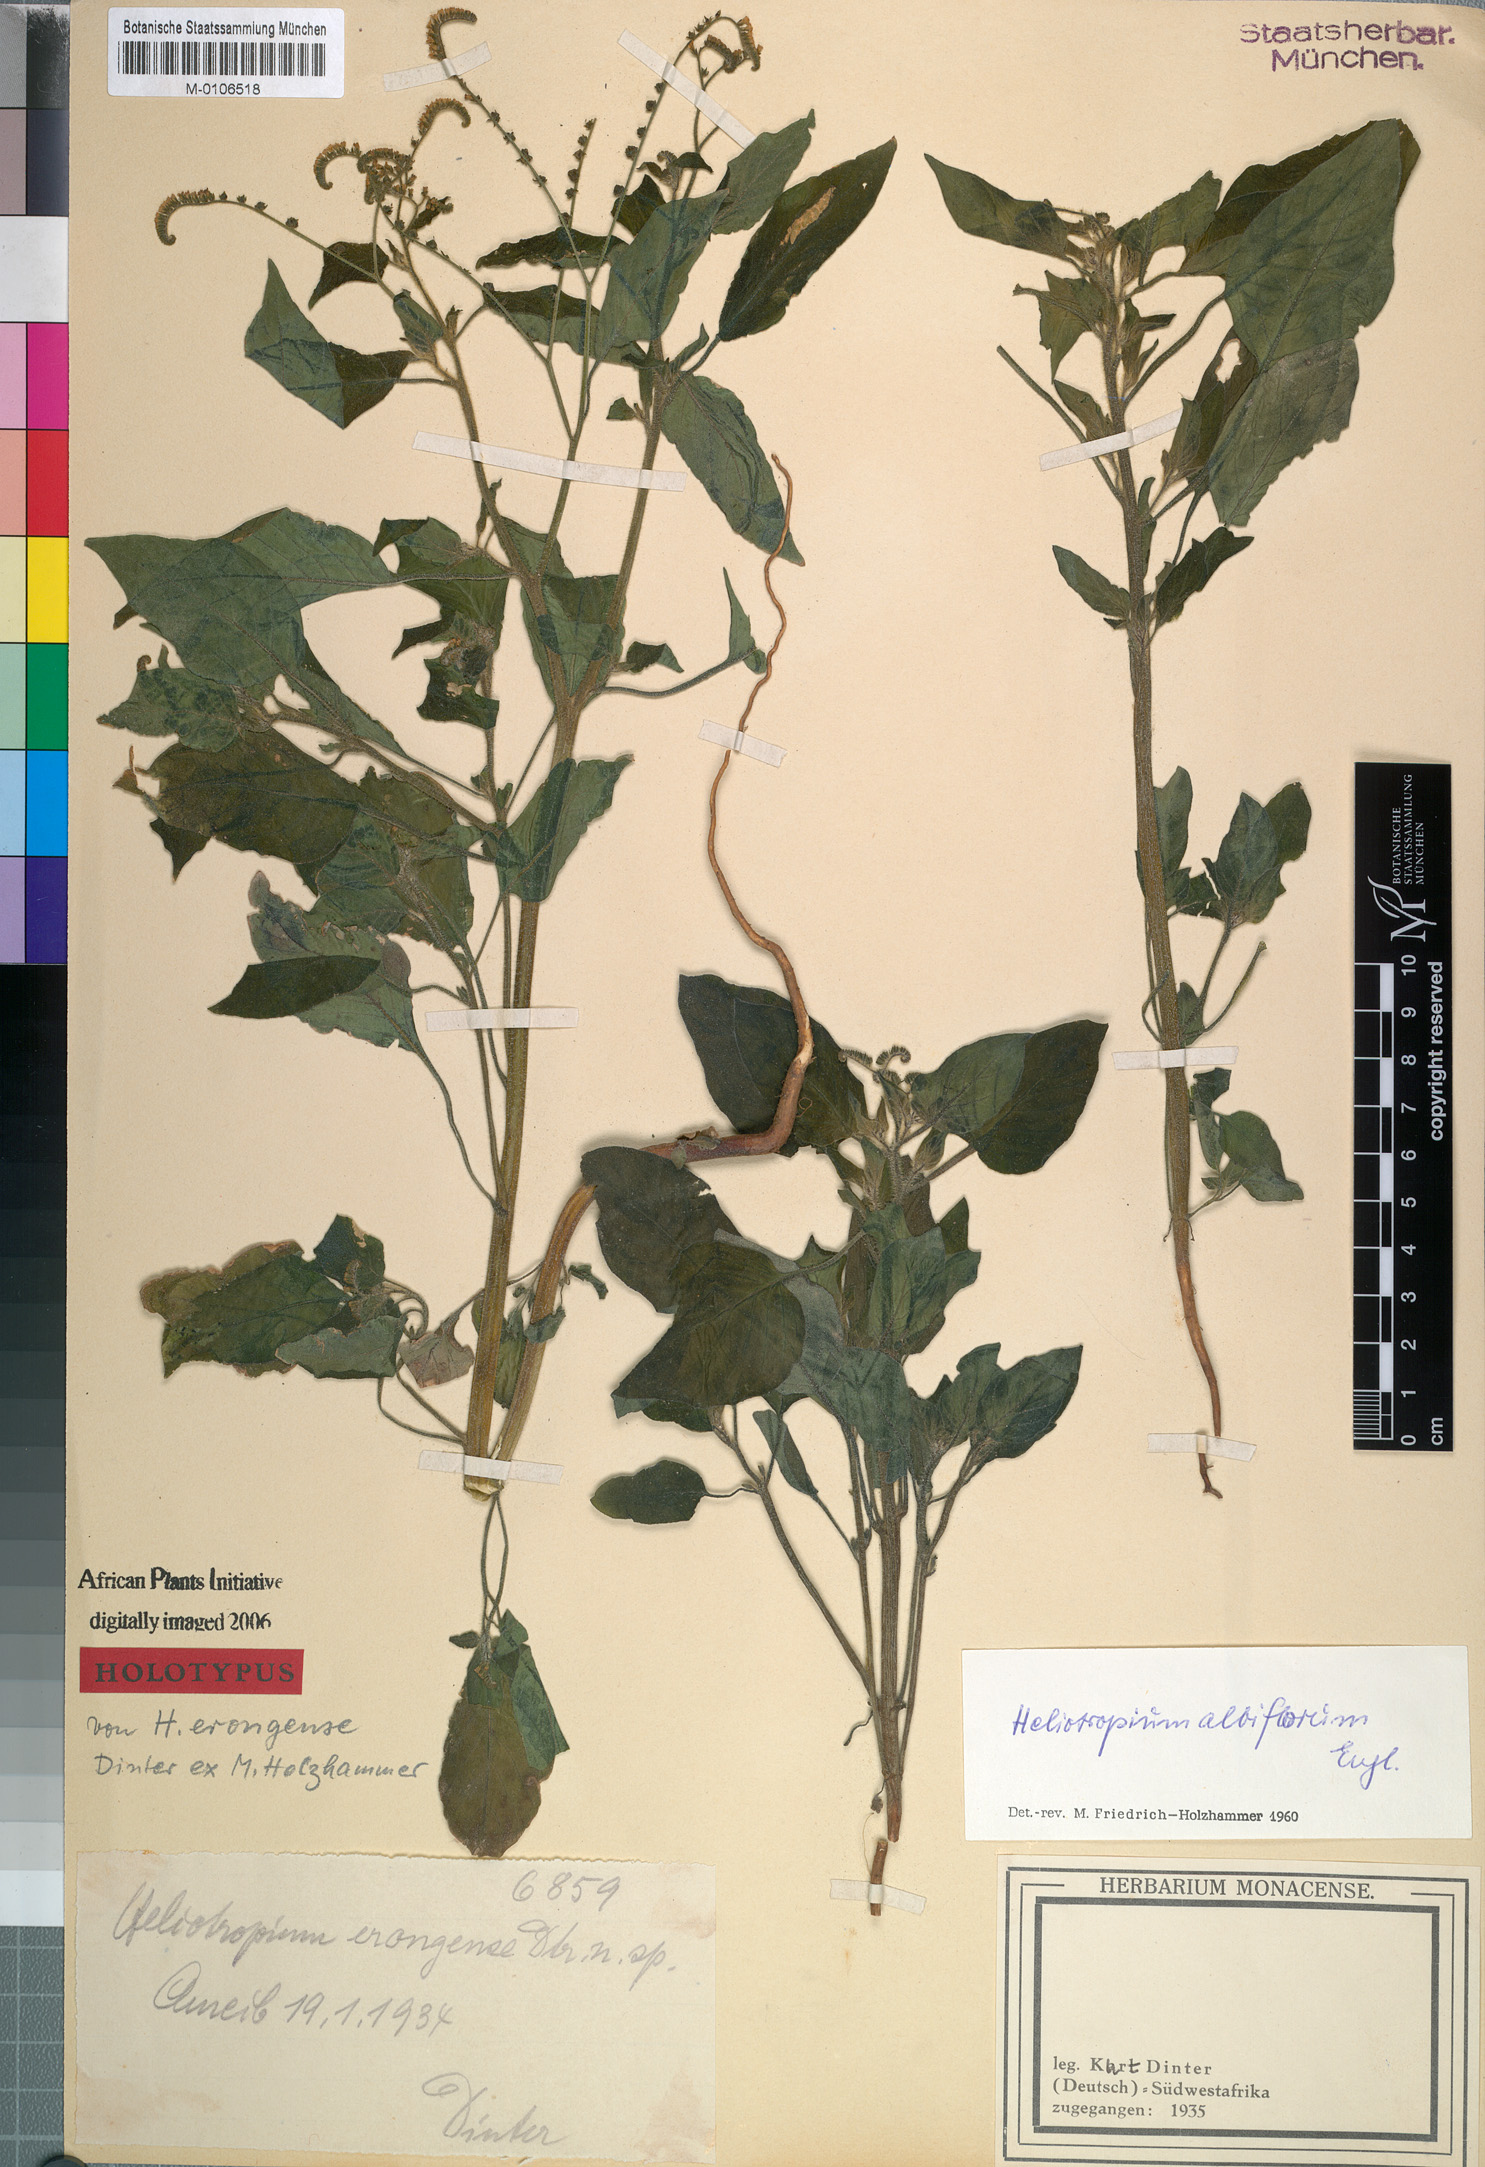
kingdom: Plantae
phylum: Tracheophyta
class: Magnoliopsida
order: Boraginales
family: Heliotropiaceae
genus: Heliotropium
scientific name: Heliotropium albiflorum
